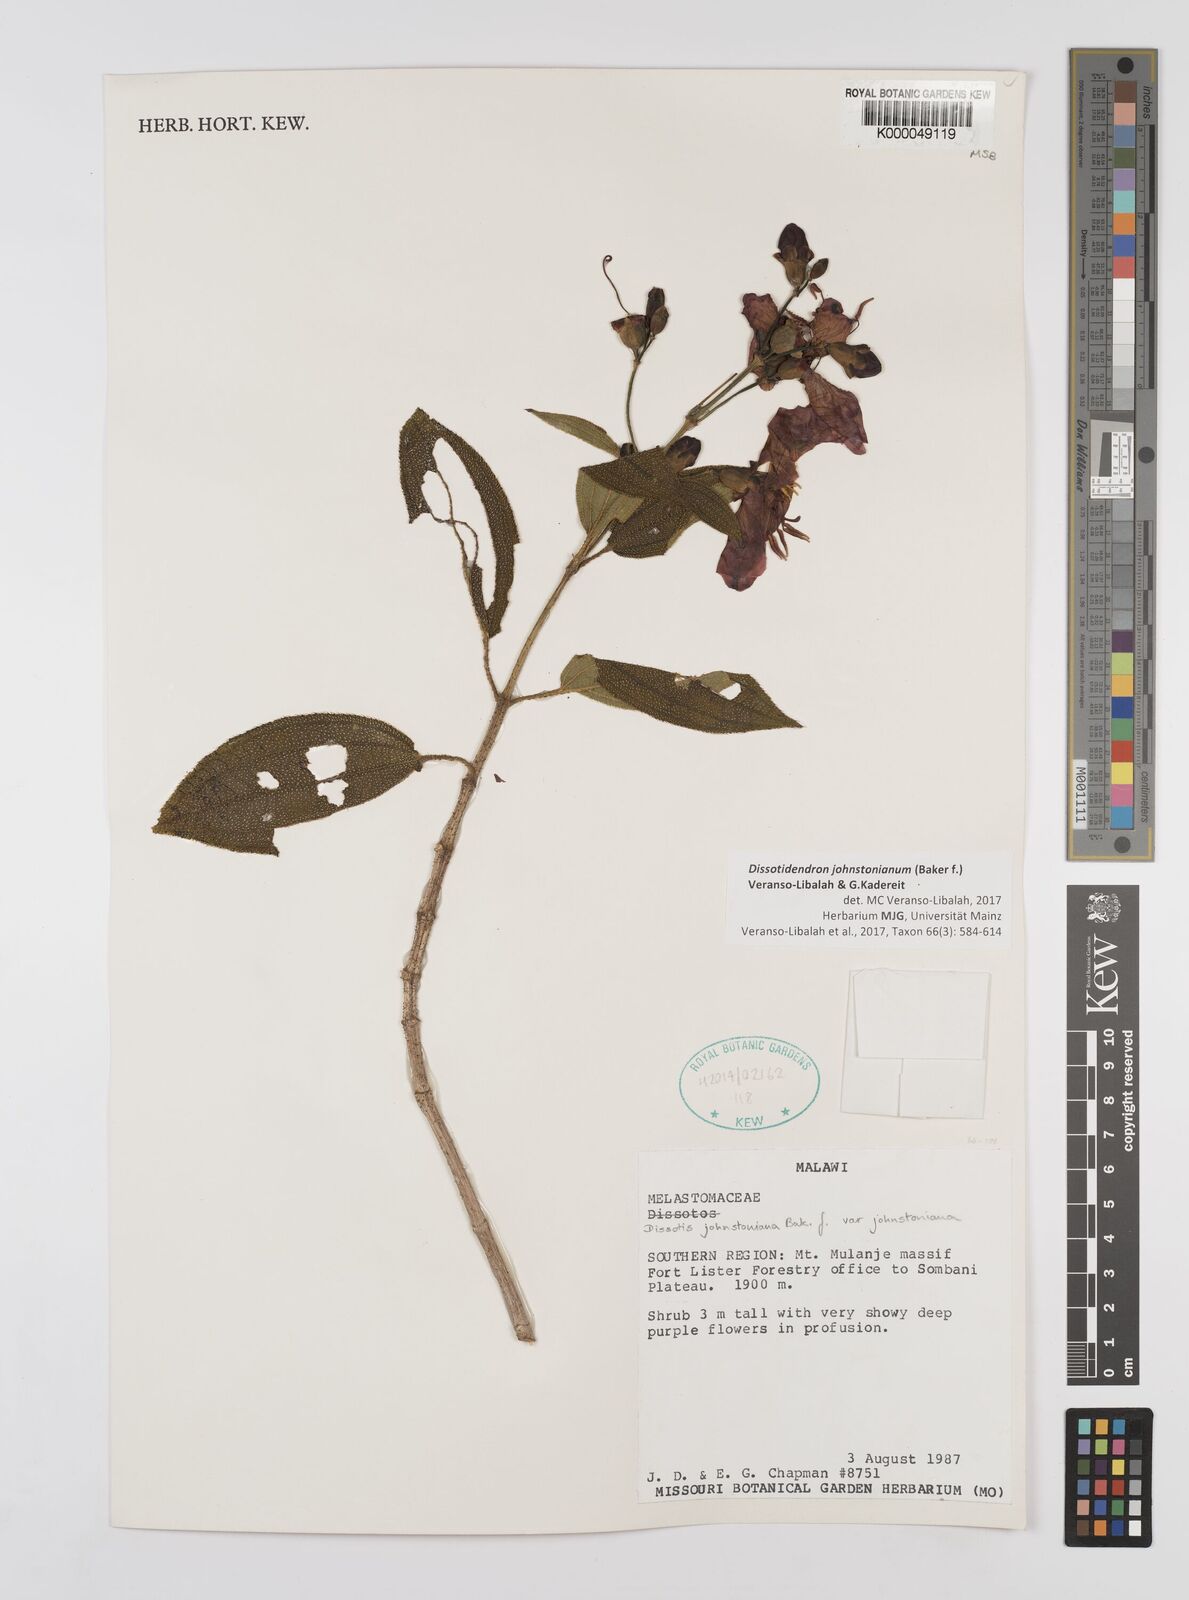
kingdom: Plantae
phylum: Tracheophyta
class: Magnoliopsida
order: Myrtales
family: Melastomataceae
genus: Dissotidendron
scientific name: Dissotidendron johnstonianum
